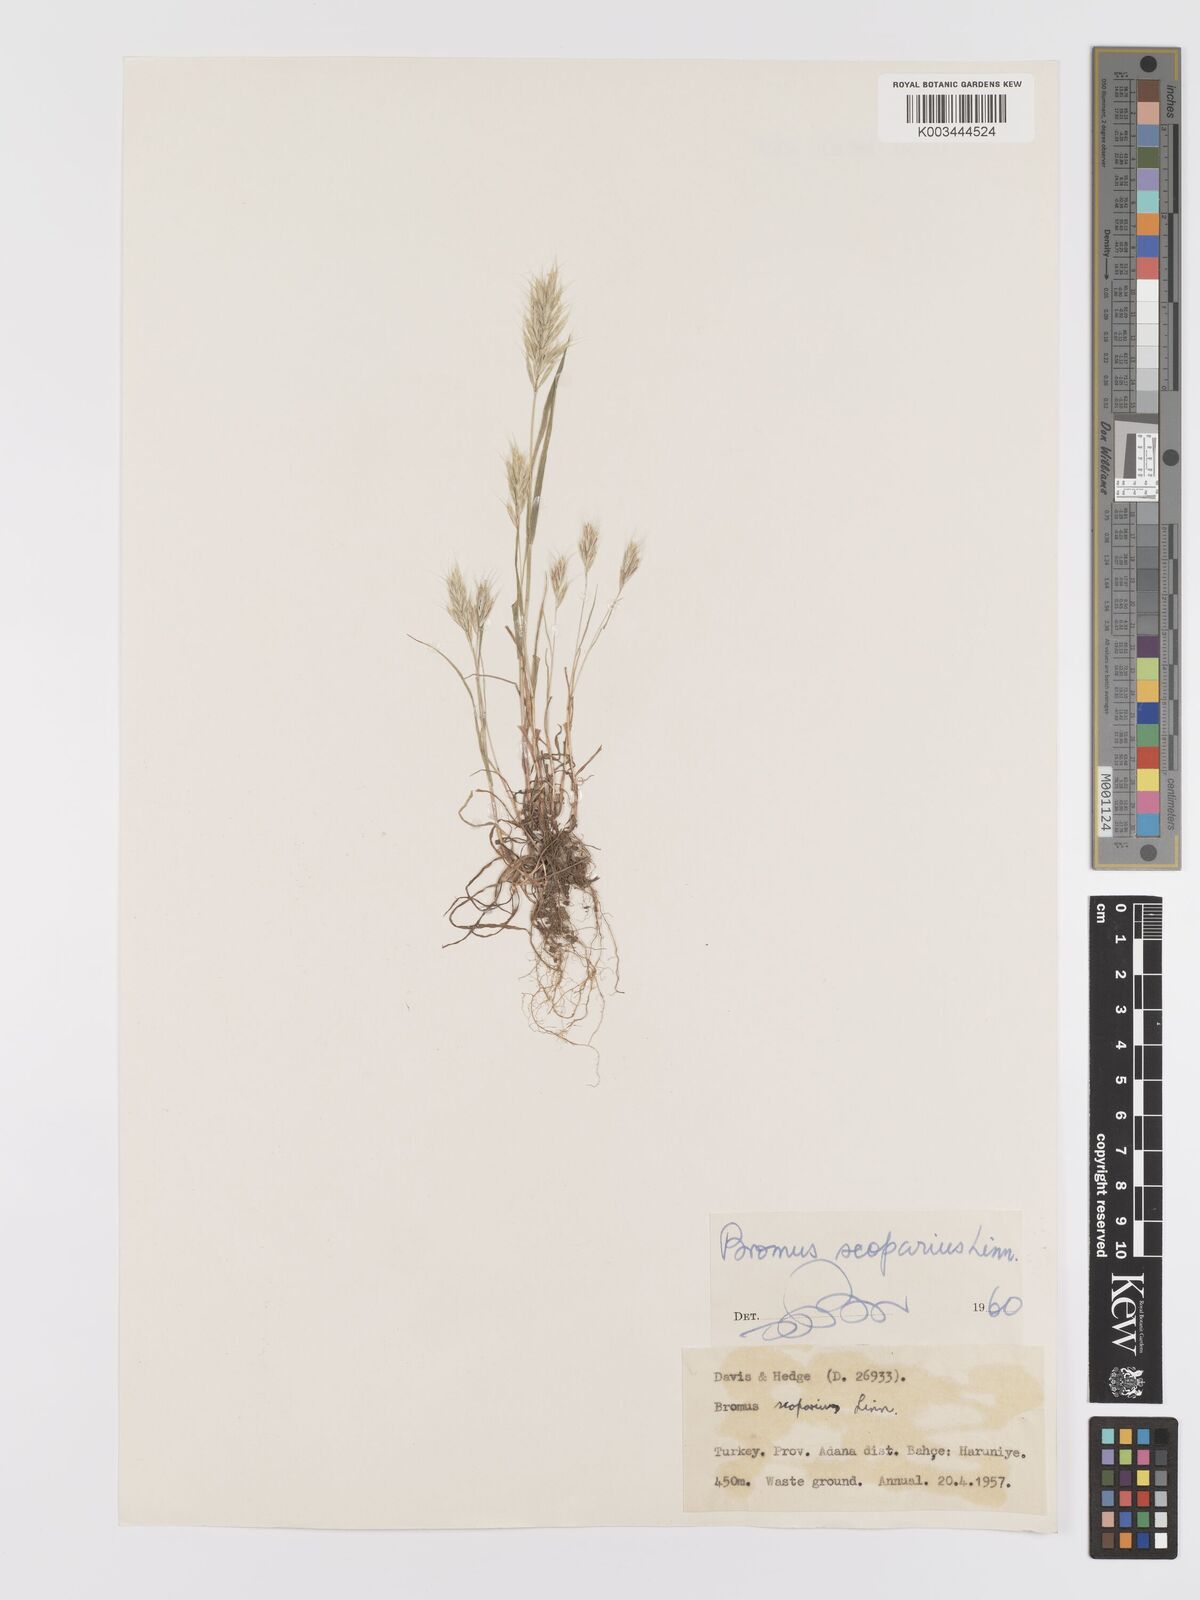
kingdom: Plantae
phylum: Tracheophyta
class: Liliopsida
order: Poales
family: Poaceae
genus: Bromus
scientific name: Bromus scoparius
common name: Broom brome
